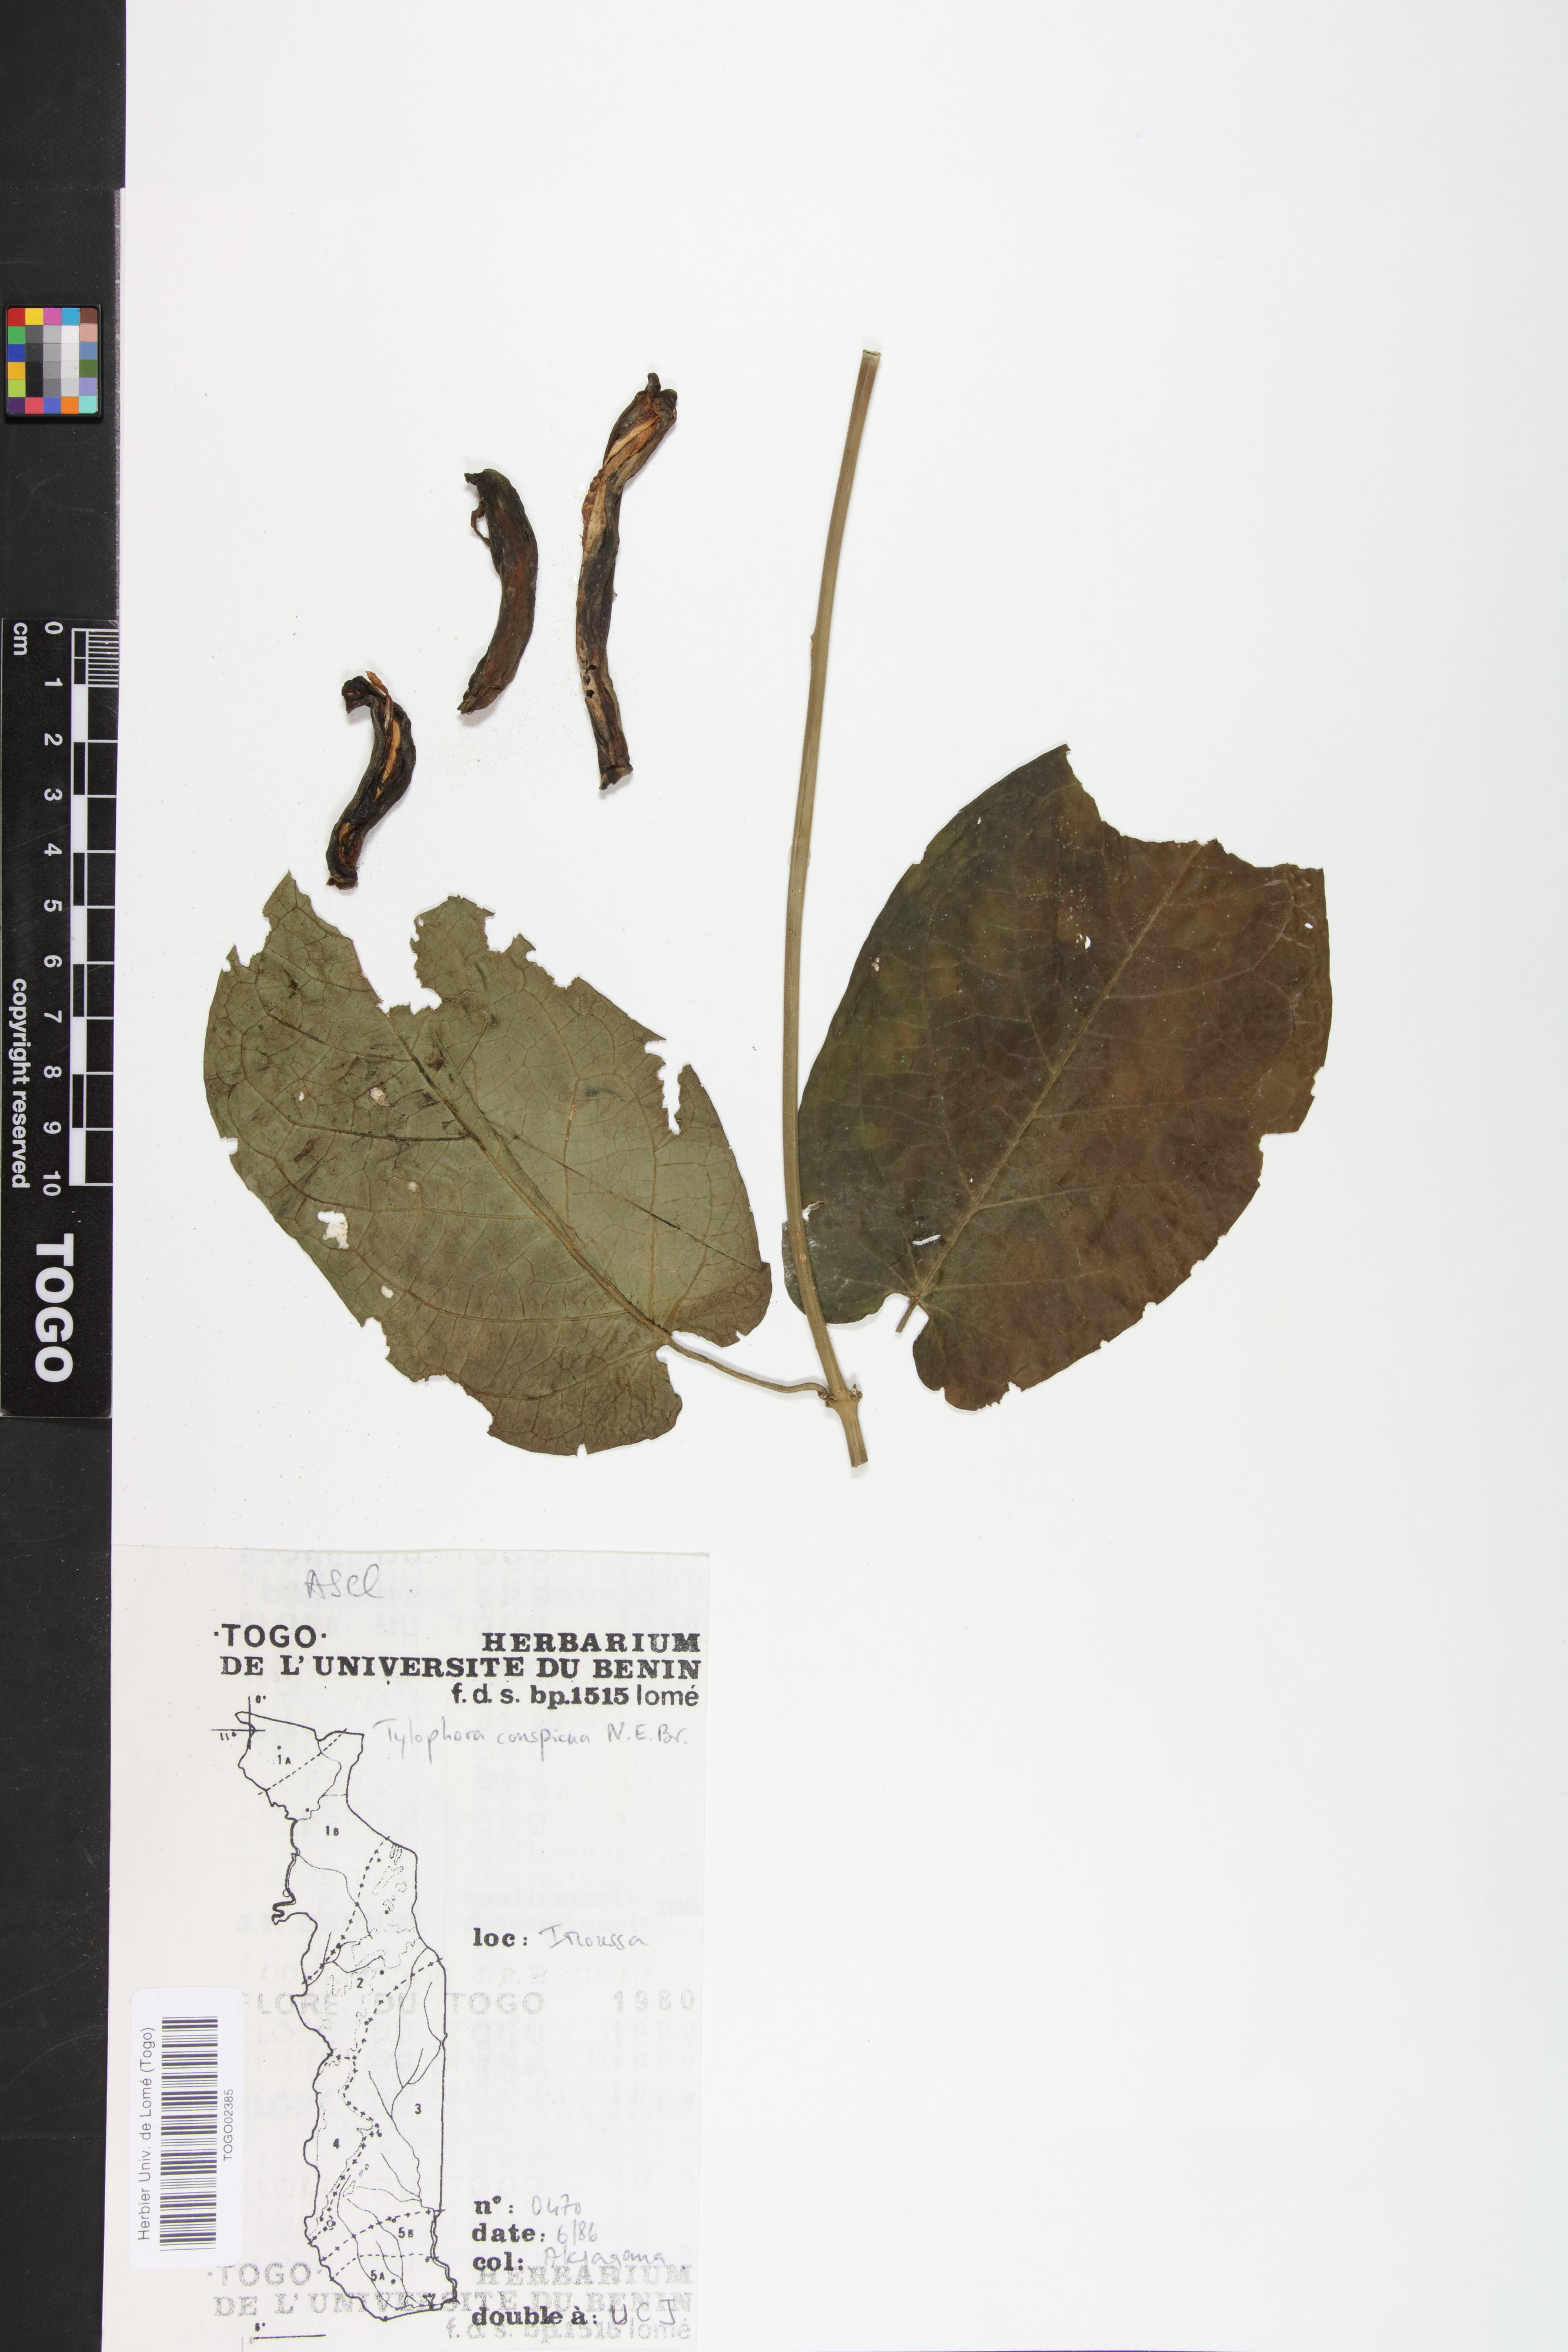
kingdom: Plantae
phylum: Tracheophyta
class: Magnoliopsida
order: Gentianales
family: Apocynaceae
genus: Vincetoxicum
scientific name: Vincetoxicum conspicuum
